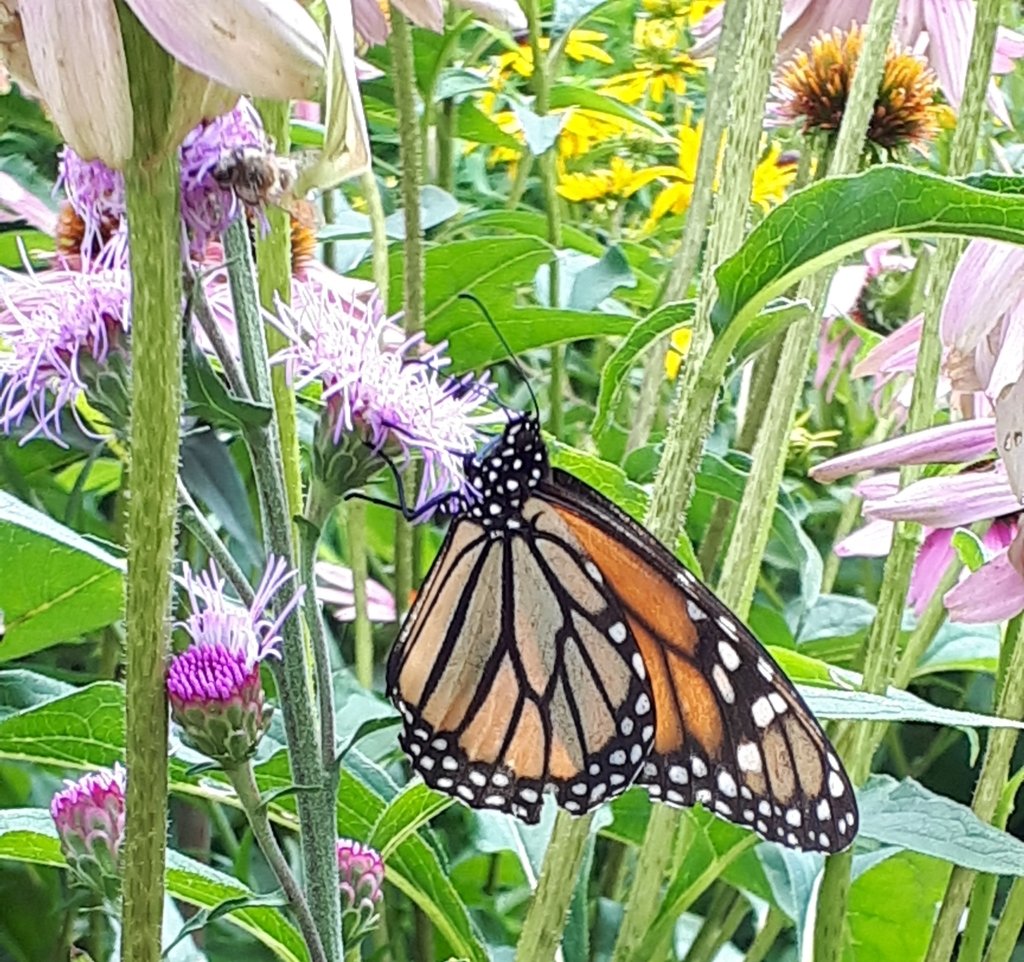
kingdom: Animalia
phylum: Arthropoda
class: Insecta
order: Lepidoptera
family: Nymphalidae
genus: Danaus
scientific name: Danaus plexippus
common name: Monarch
